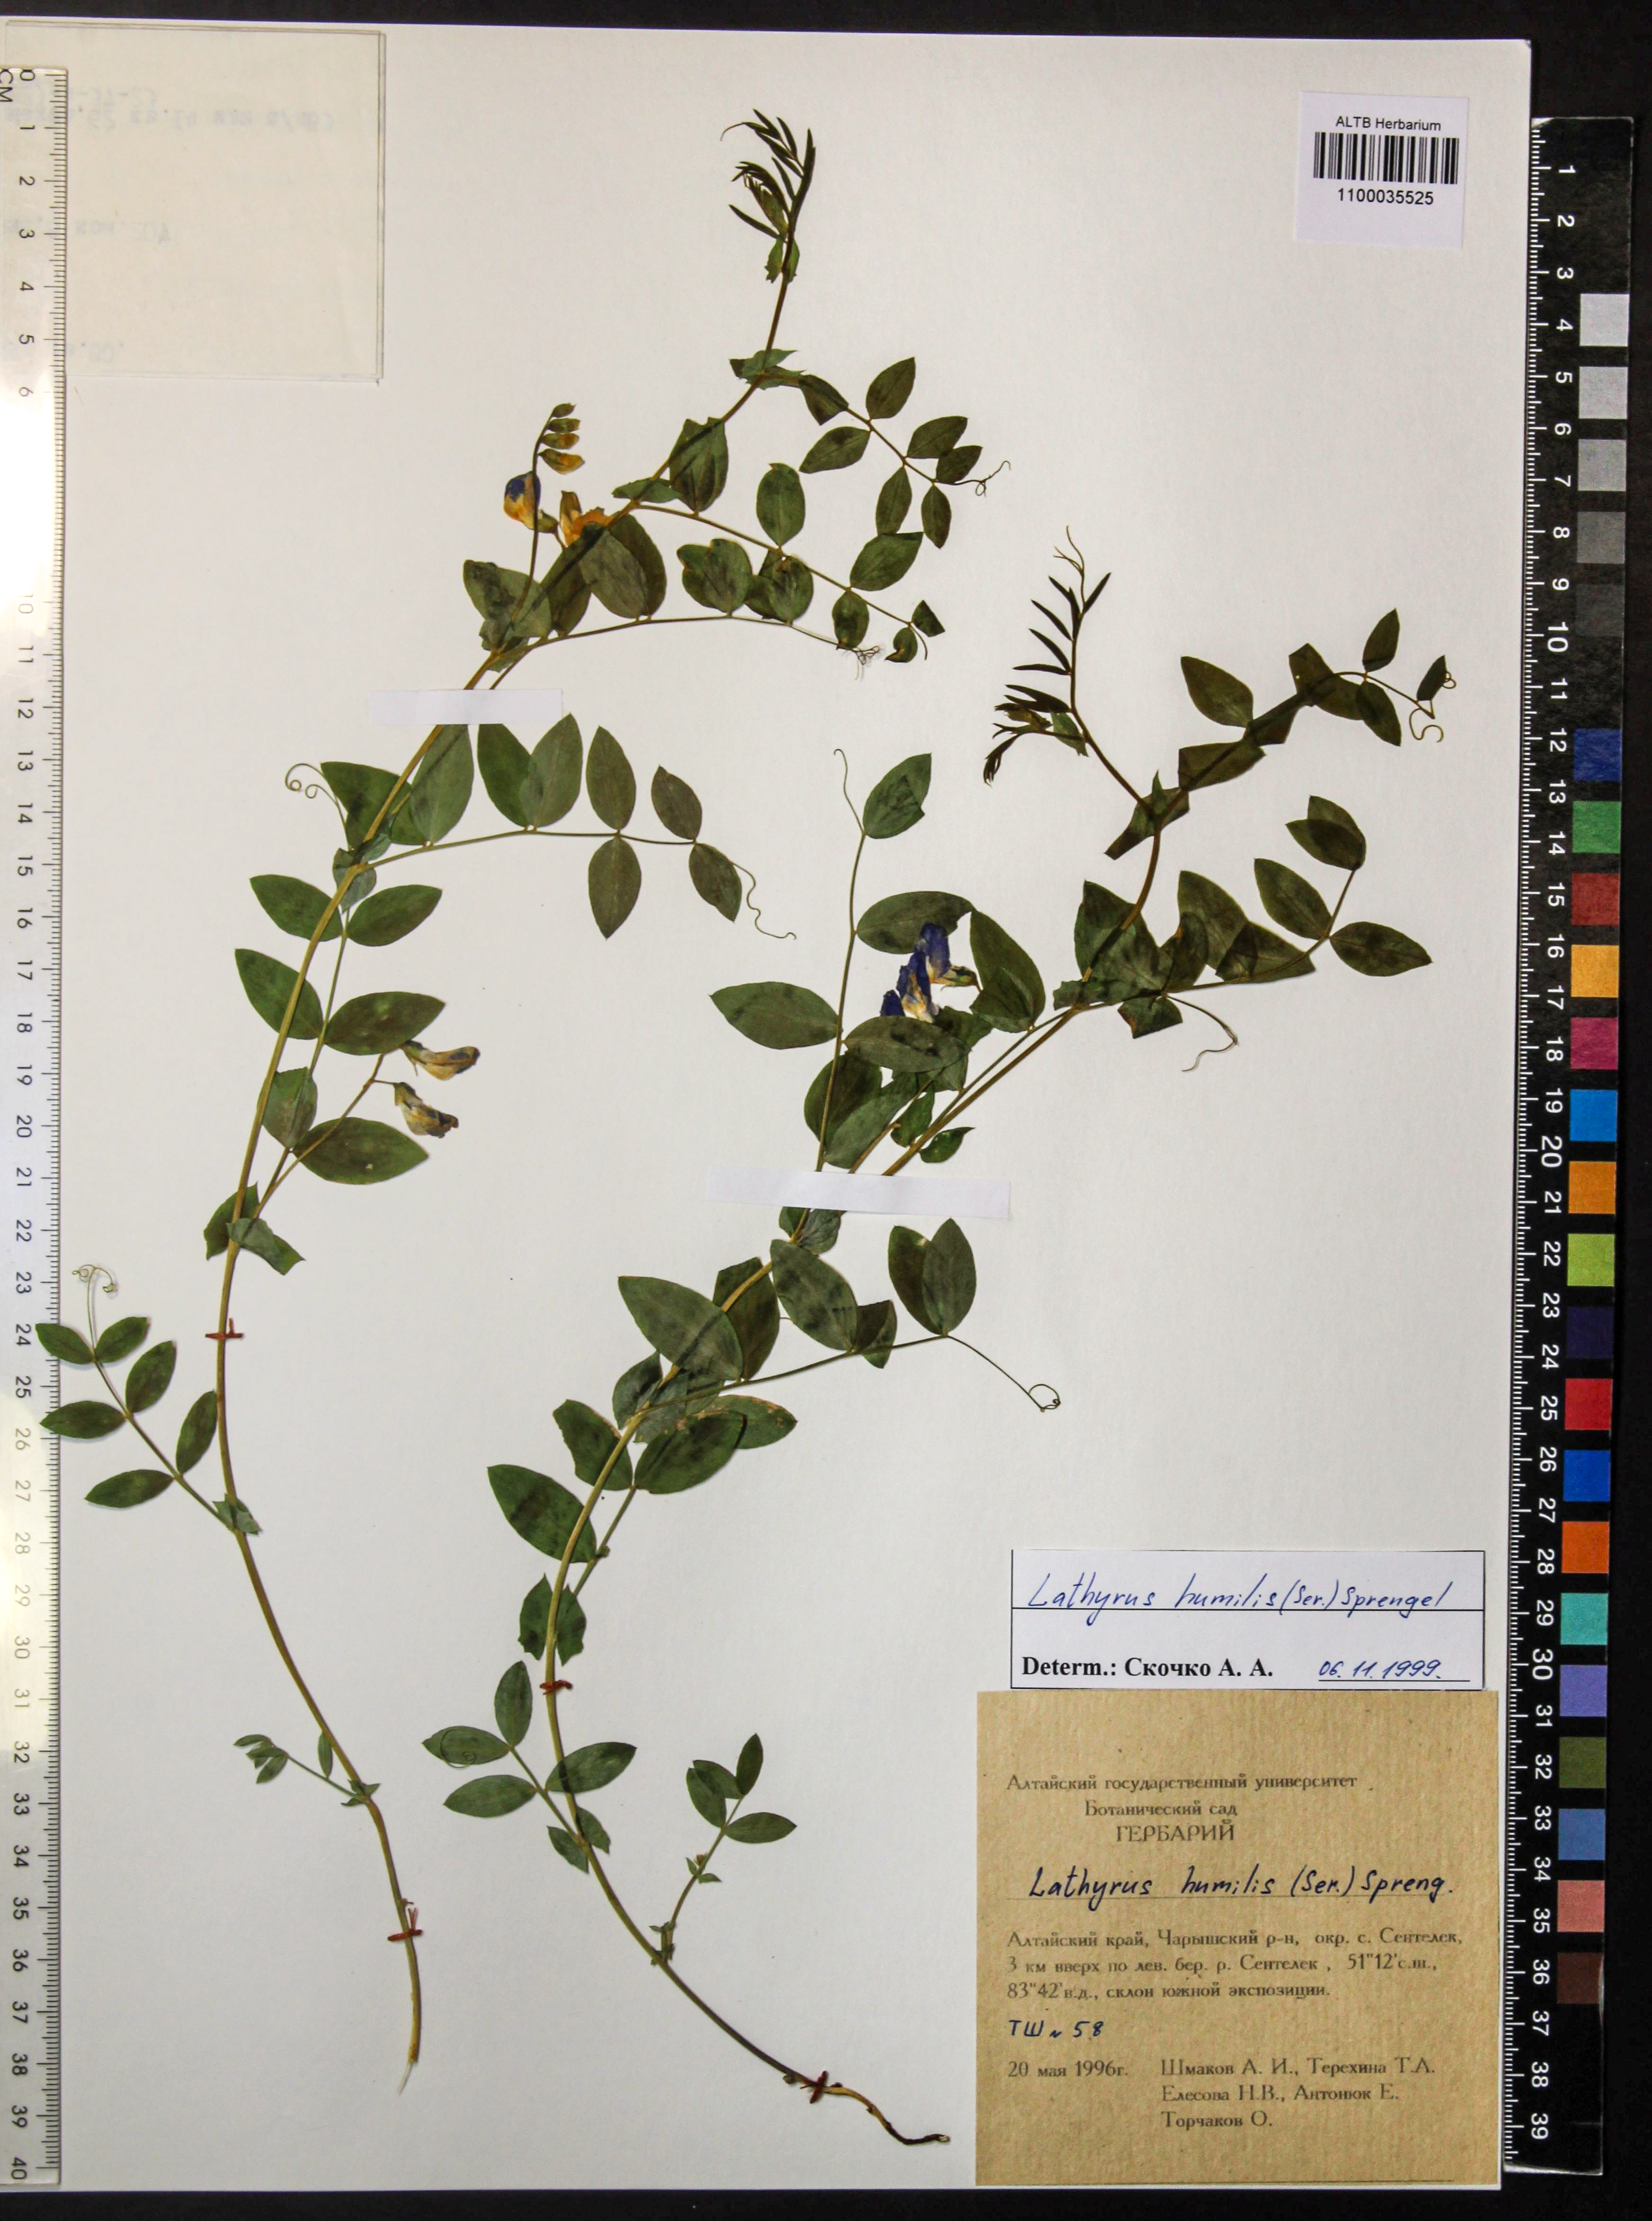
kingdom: Plantae
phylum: Tracheophyta
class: Magnoliopsida
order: Fabales
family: Fabaceae
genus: Lathyrus
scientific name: Lathyrus humilis
